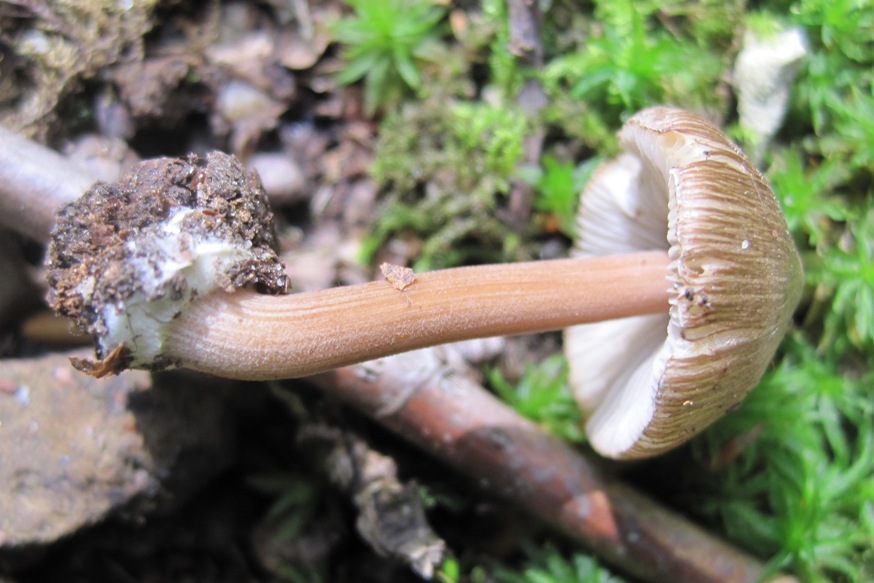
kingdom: Fungi
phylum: Basidiomycota
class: Agaricomycetes
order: Agaricales
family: Inocybaceae
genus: Inocybe
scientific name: Inocybe asterospora
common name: stjernesporet trævlhat
